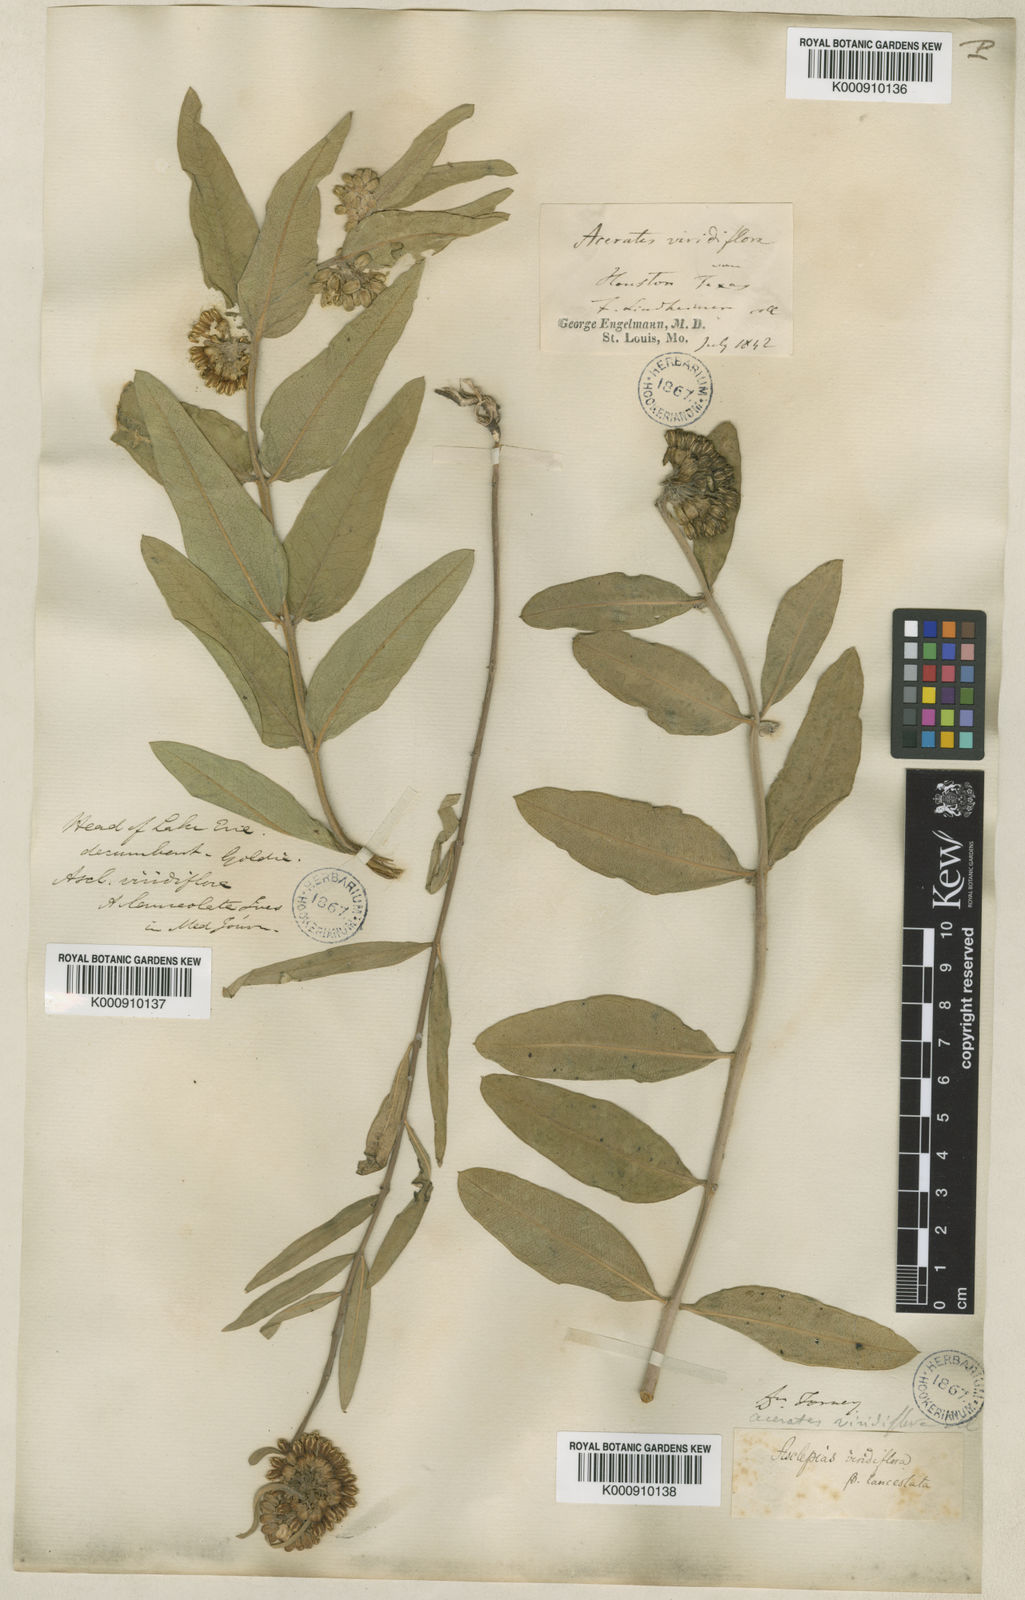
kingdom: Plantae
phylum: Tracheophyta
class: Magnoliopsida
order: Gentianales
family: Apocynaceae
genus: Asclepias
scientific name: Asclepias viridiflora
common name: Green comet milkweed
